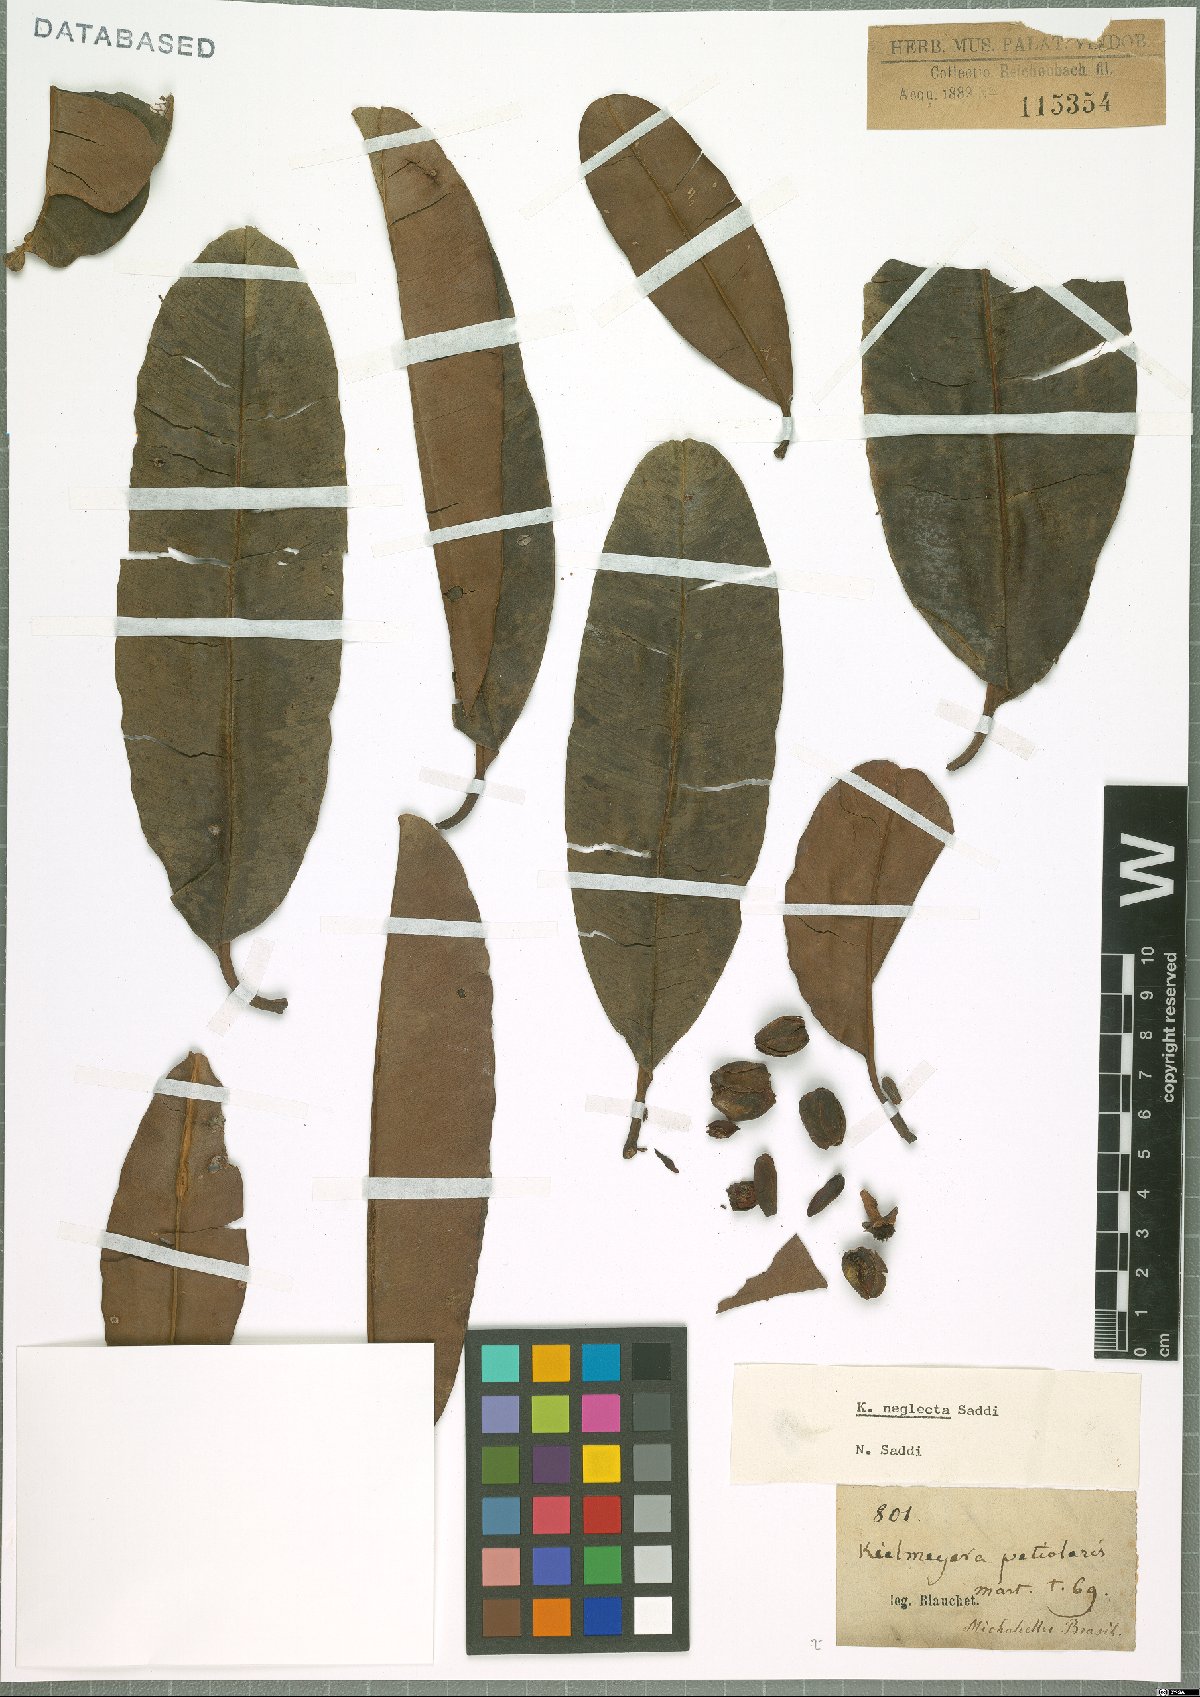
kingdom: Plantae
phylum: Tracheophyta
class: Magnoliopsida
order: Malpighiales
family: Calophyllaceae
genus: Kielmeyera
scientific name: Kielmeyera neglecta
